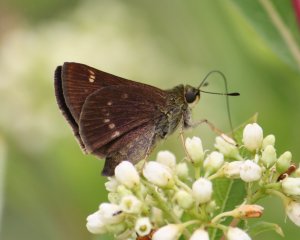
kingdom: Animalia
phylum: Arthropoda
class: Insecta
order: Lepidoptera
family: Hesperiidae
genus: Vernia
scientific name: Vernia verna
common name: Little Glassywing
